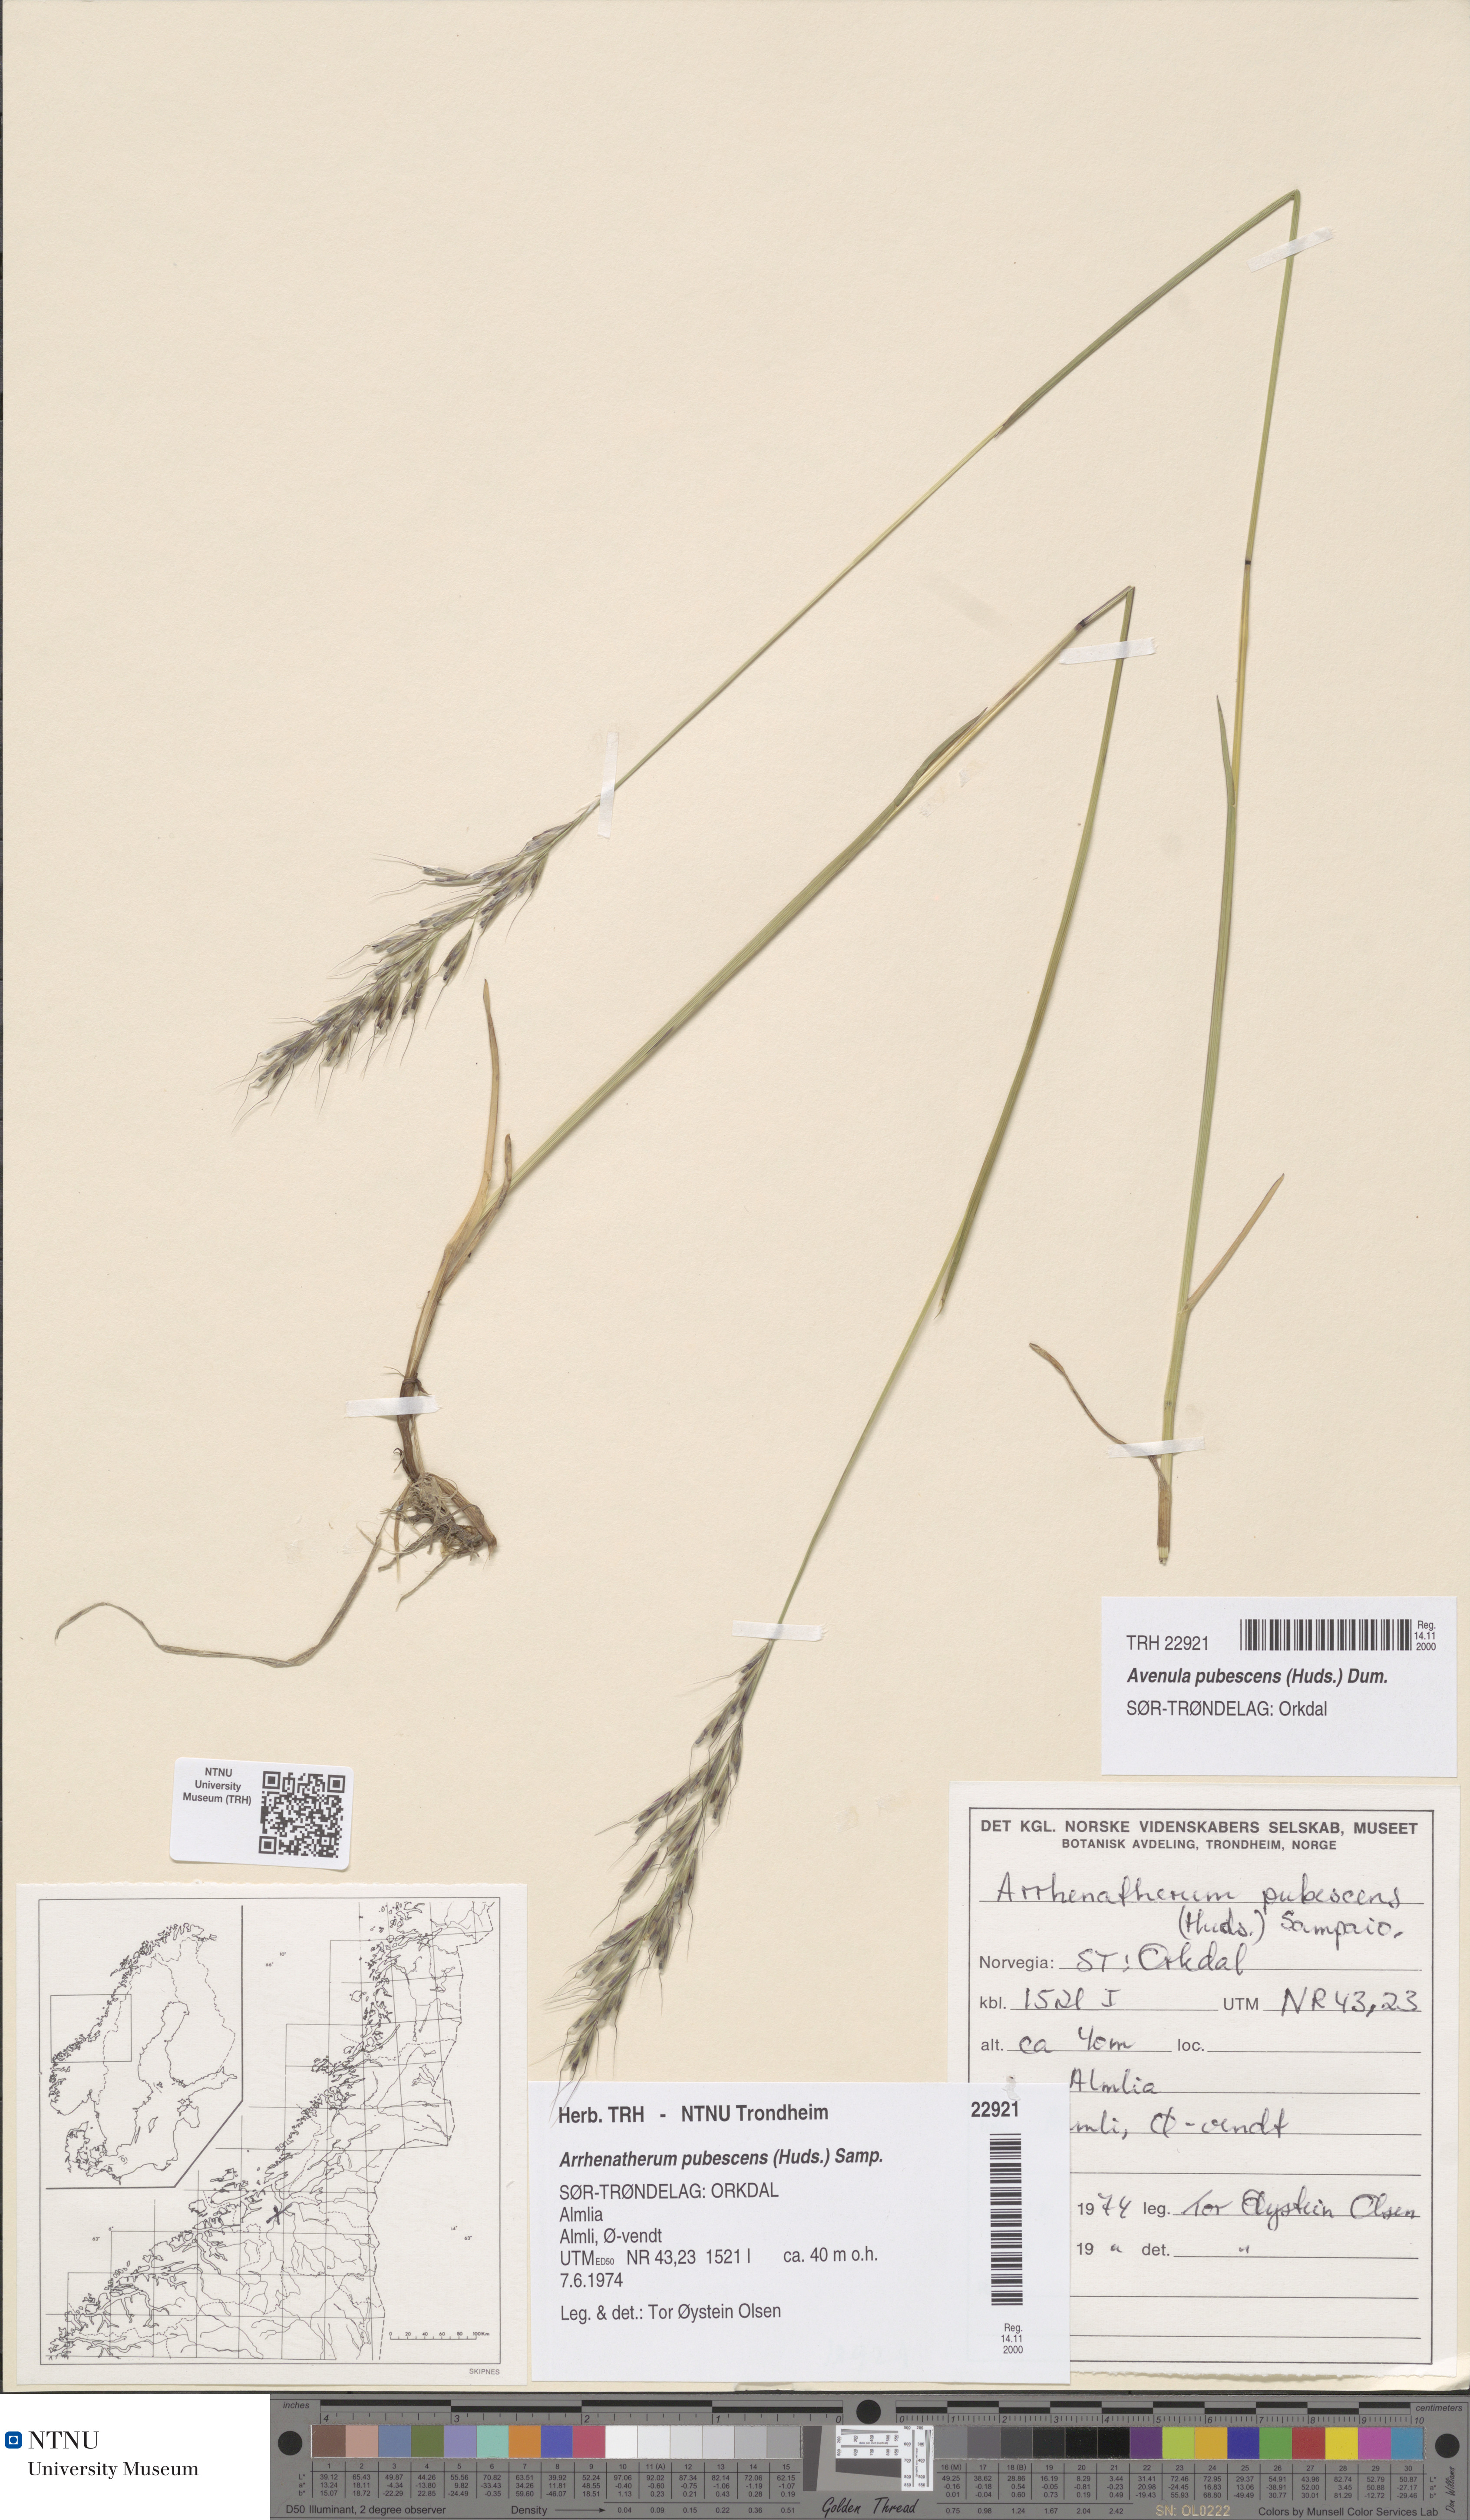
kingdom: Plantae
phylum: Tracheophyta
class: Liliopsida
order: Poales
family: Poaceae
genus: Avenula
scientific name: Avenula pubescens
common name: Downy alpine oatgrass
